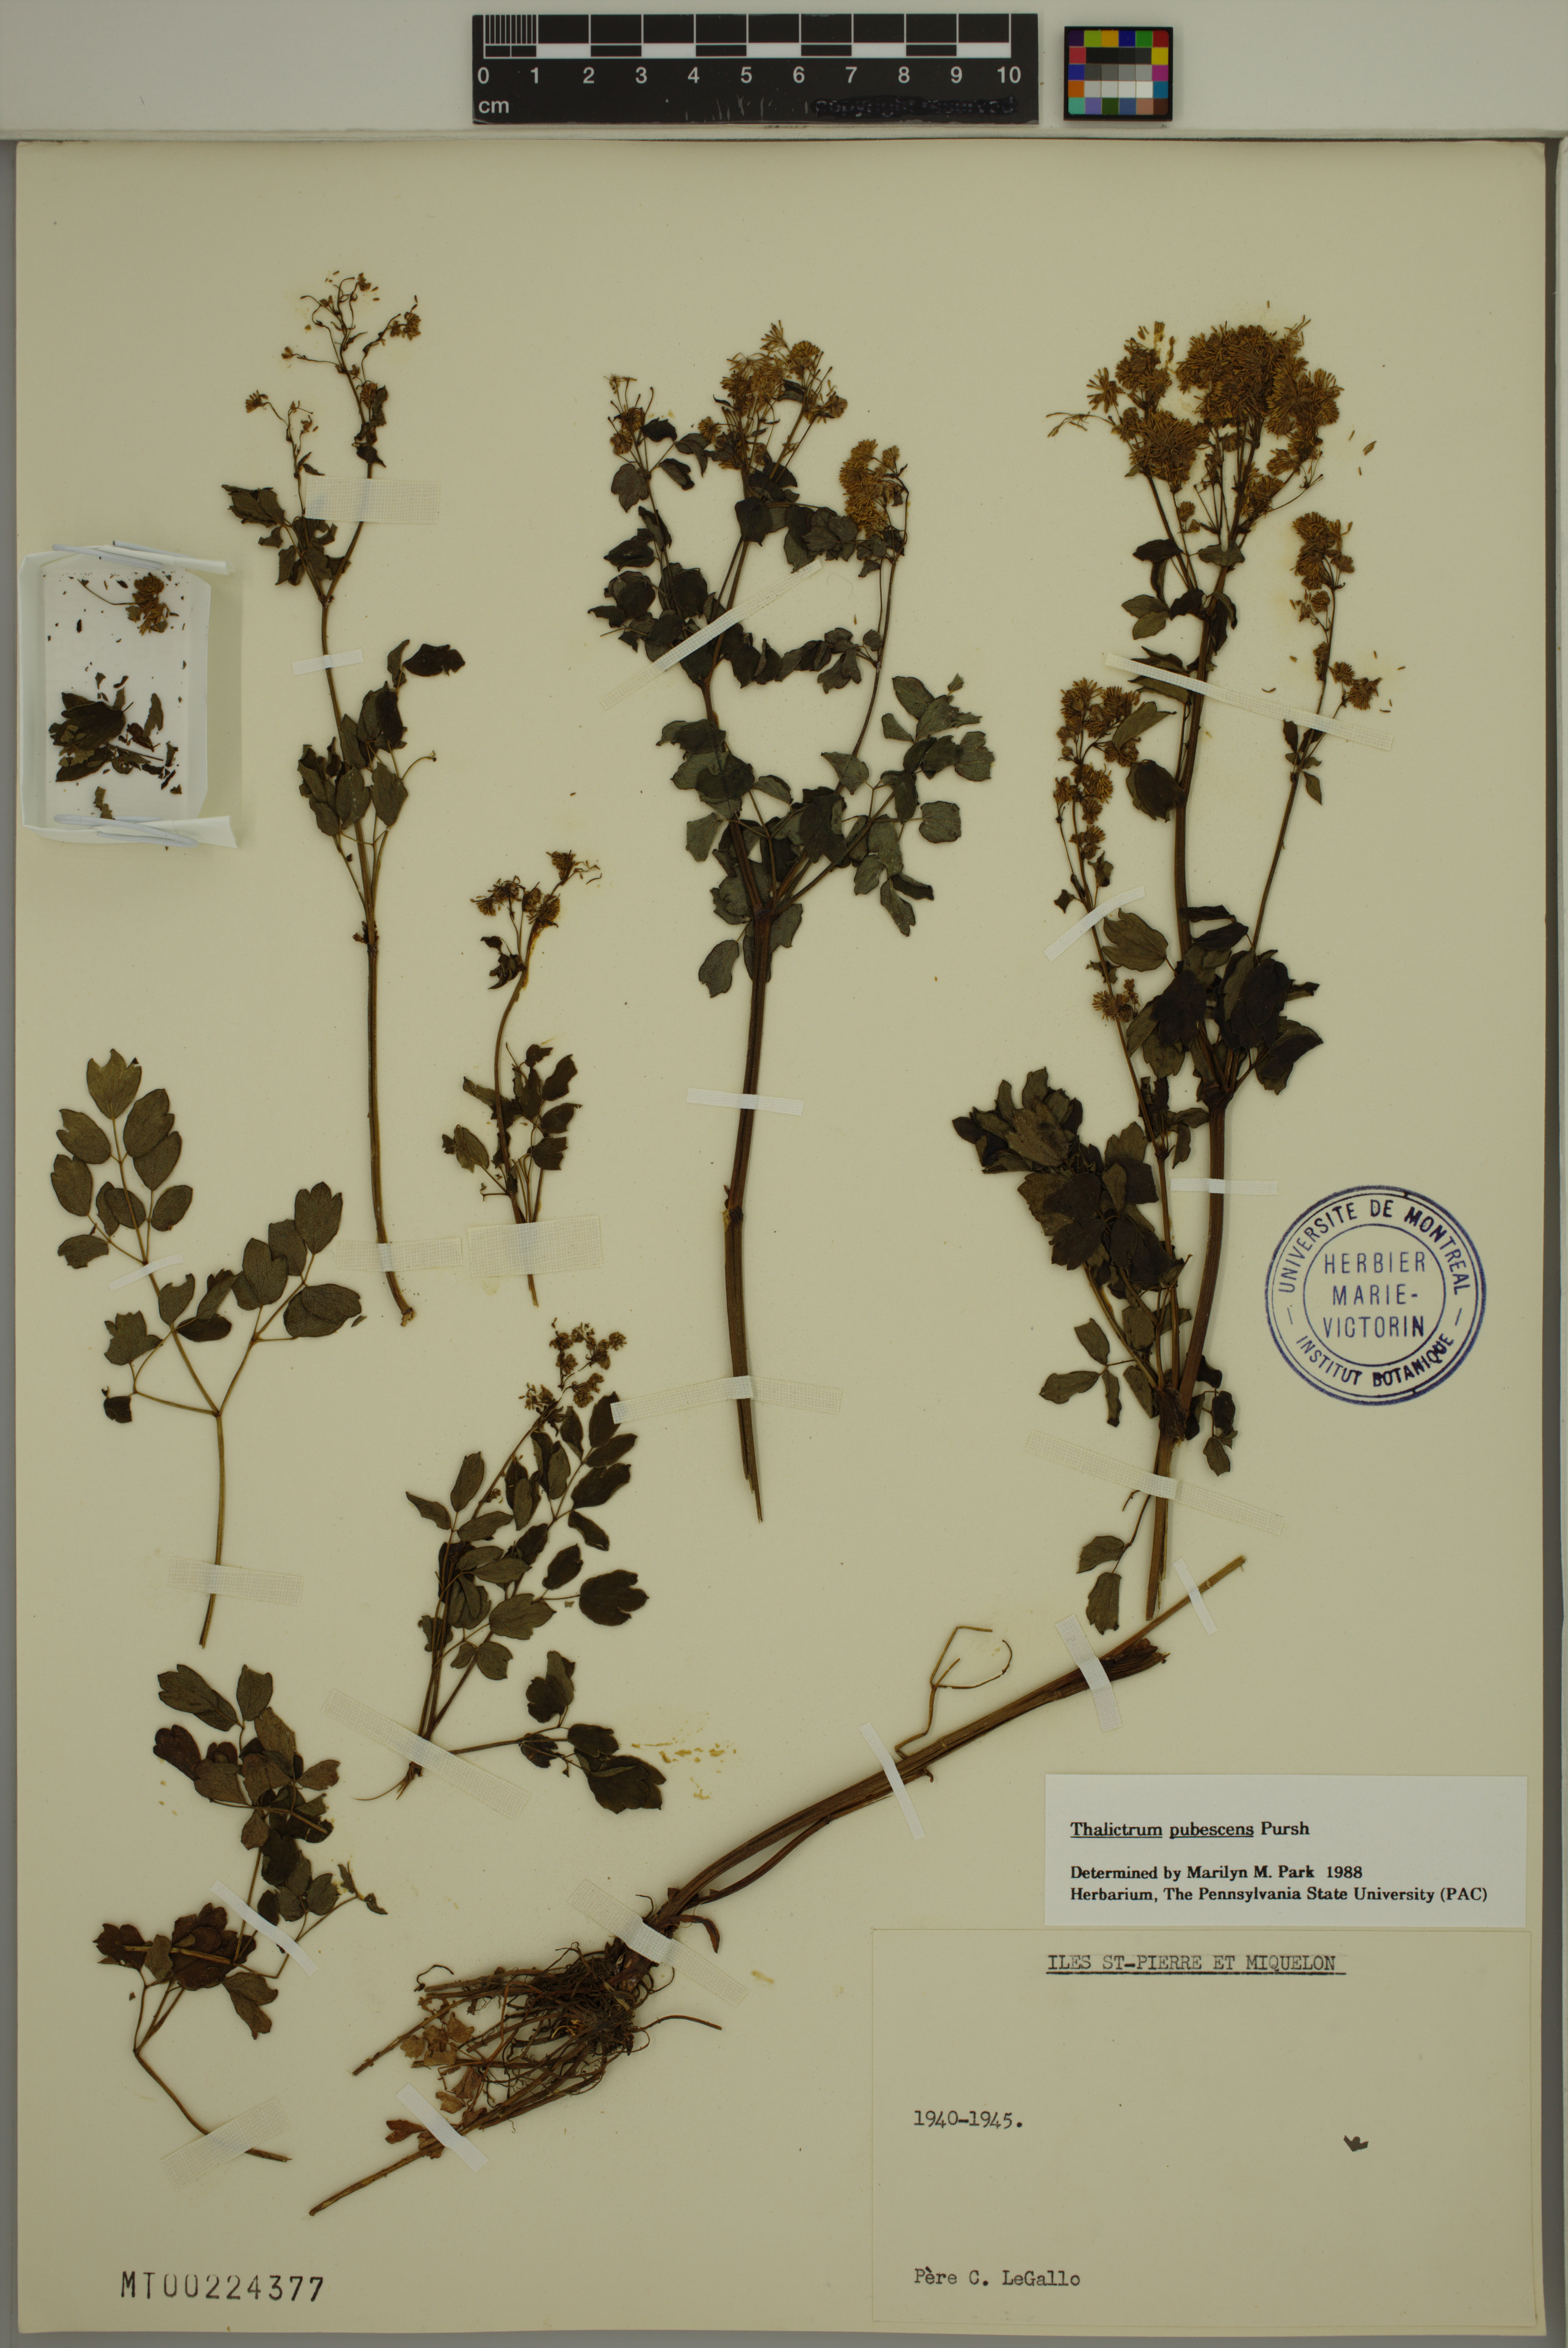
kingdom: Plantae
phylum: Tracheophyta
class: Magnoliopsida
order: Ranunculales
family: Ranunculaceae
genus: Thalictrum
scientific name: Thalictrum pubescens
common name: King-of-the-meadow
